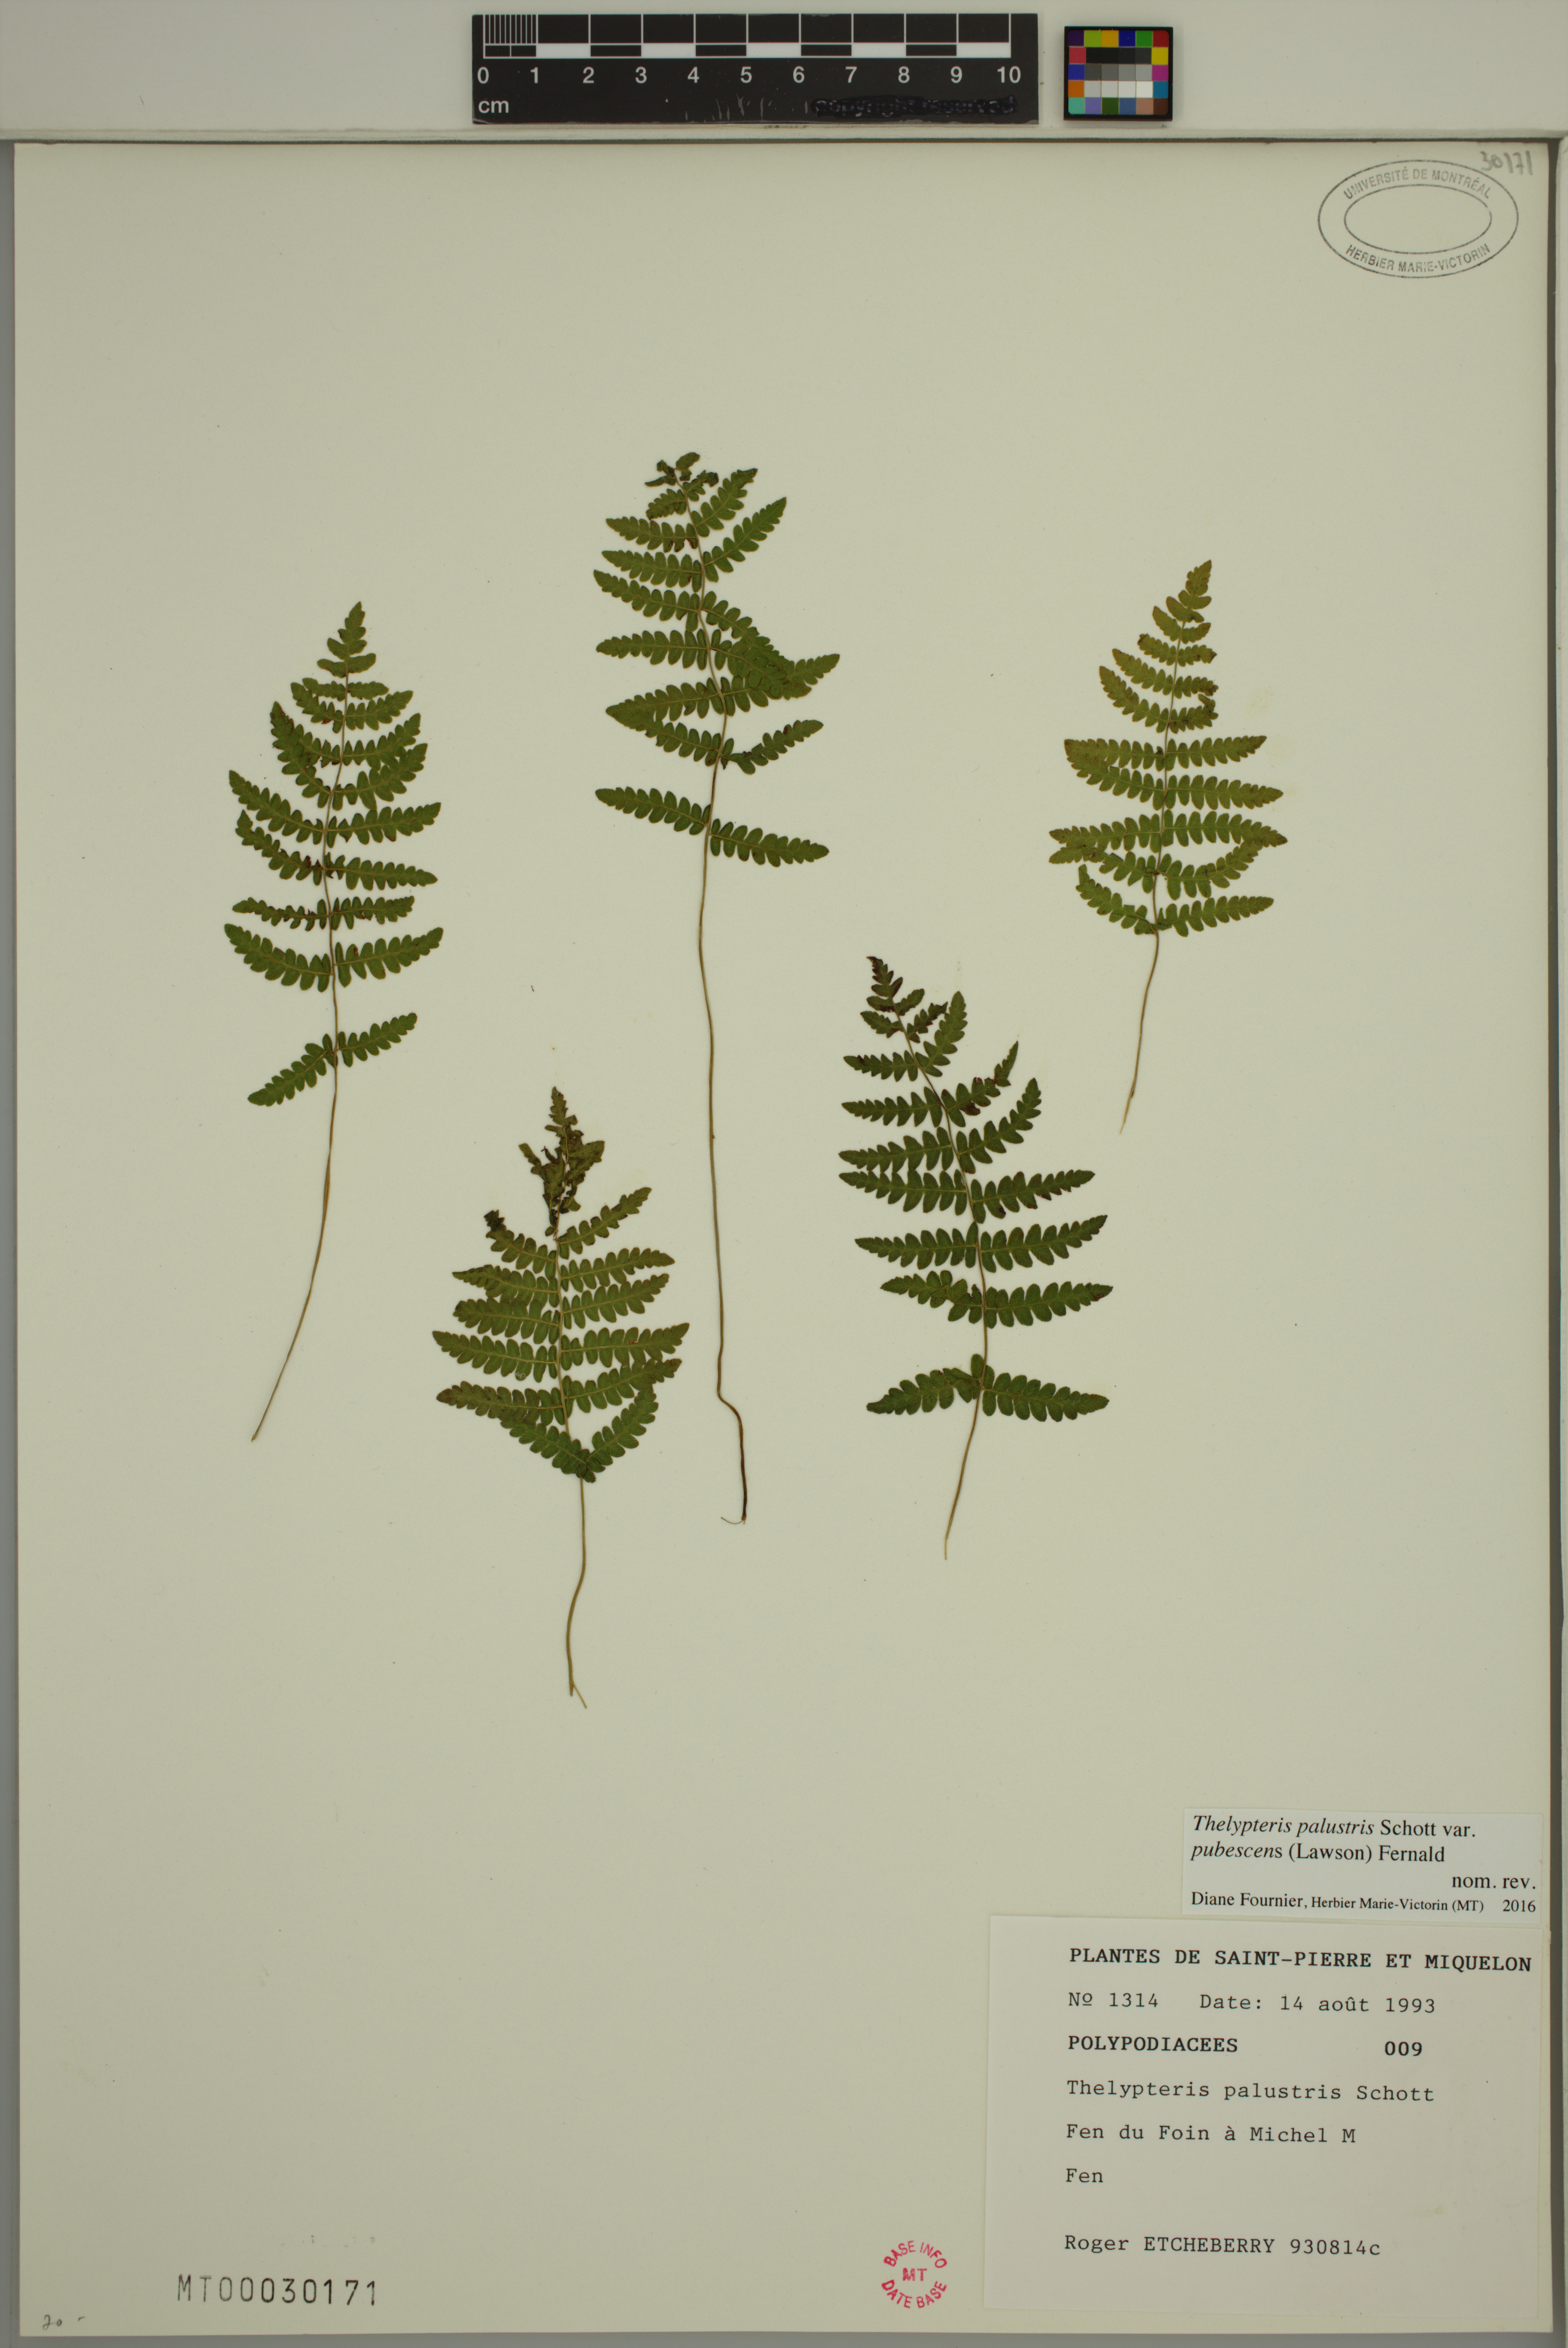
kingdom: Plantae
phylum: Tracheophyta
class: Polypodiopsida
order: Polypodiales
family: Thelypteridaceae
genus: Thelypteris
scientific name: Thelypteris palustris
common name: Marsh fern
